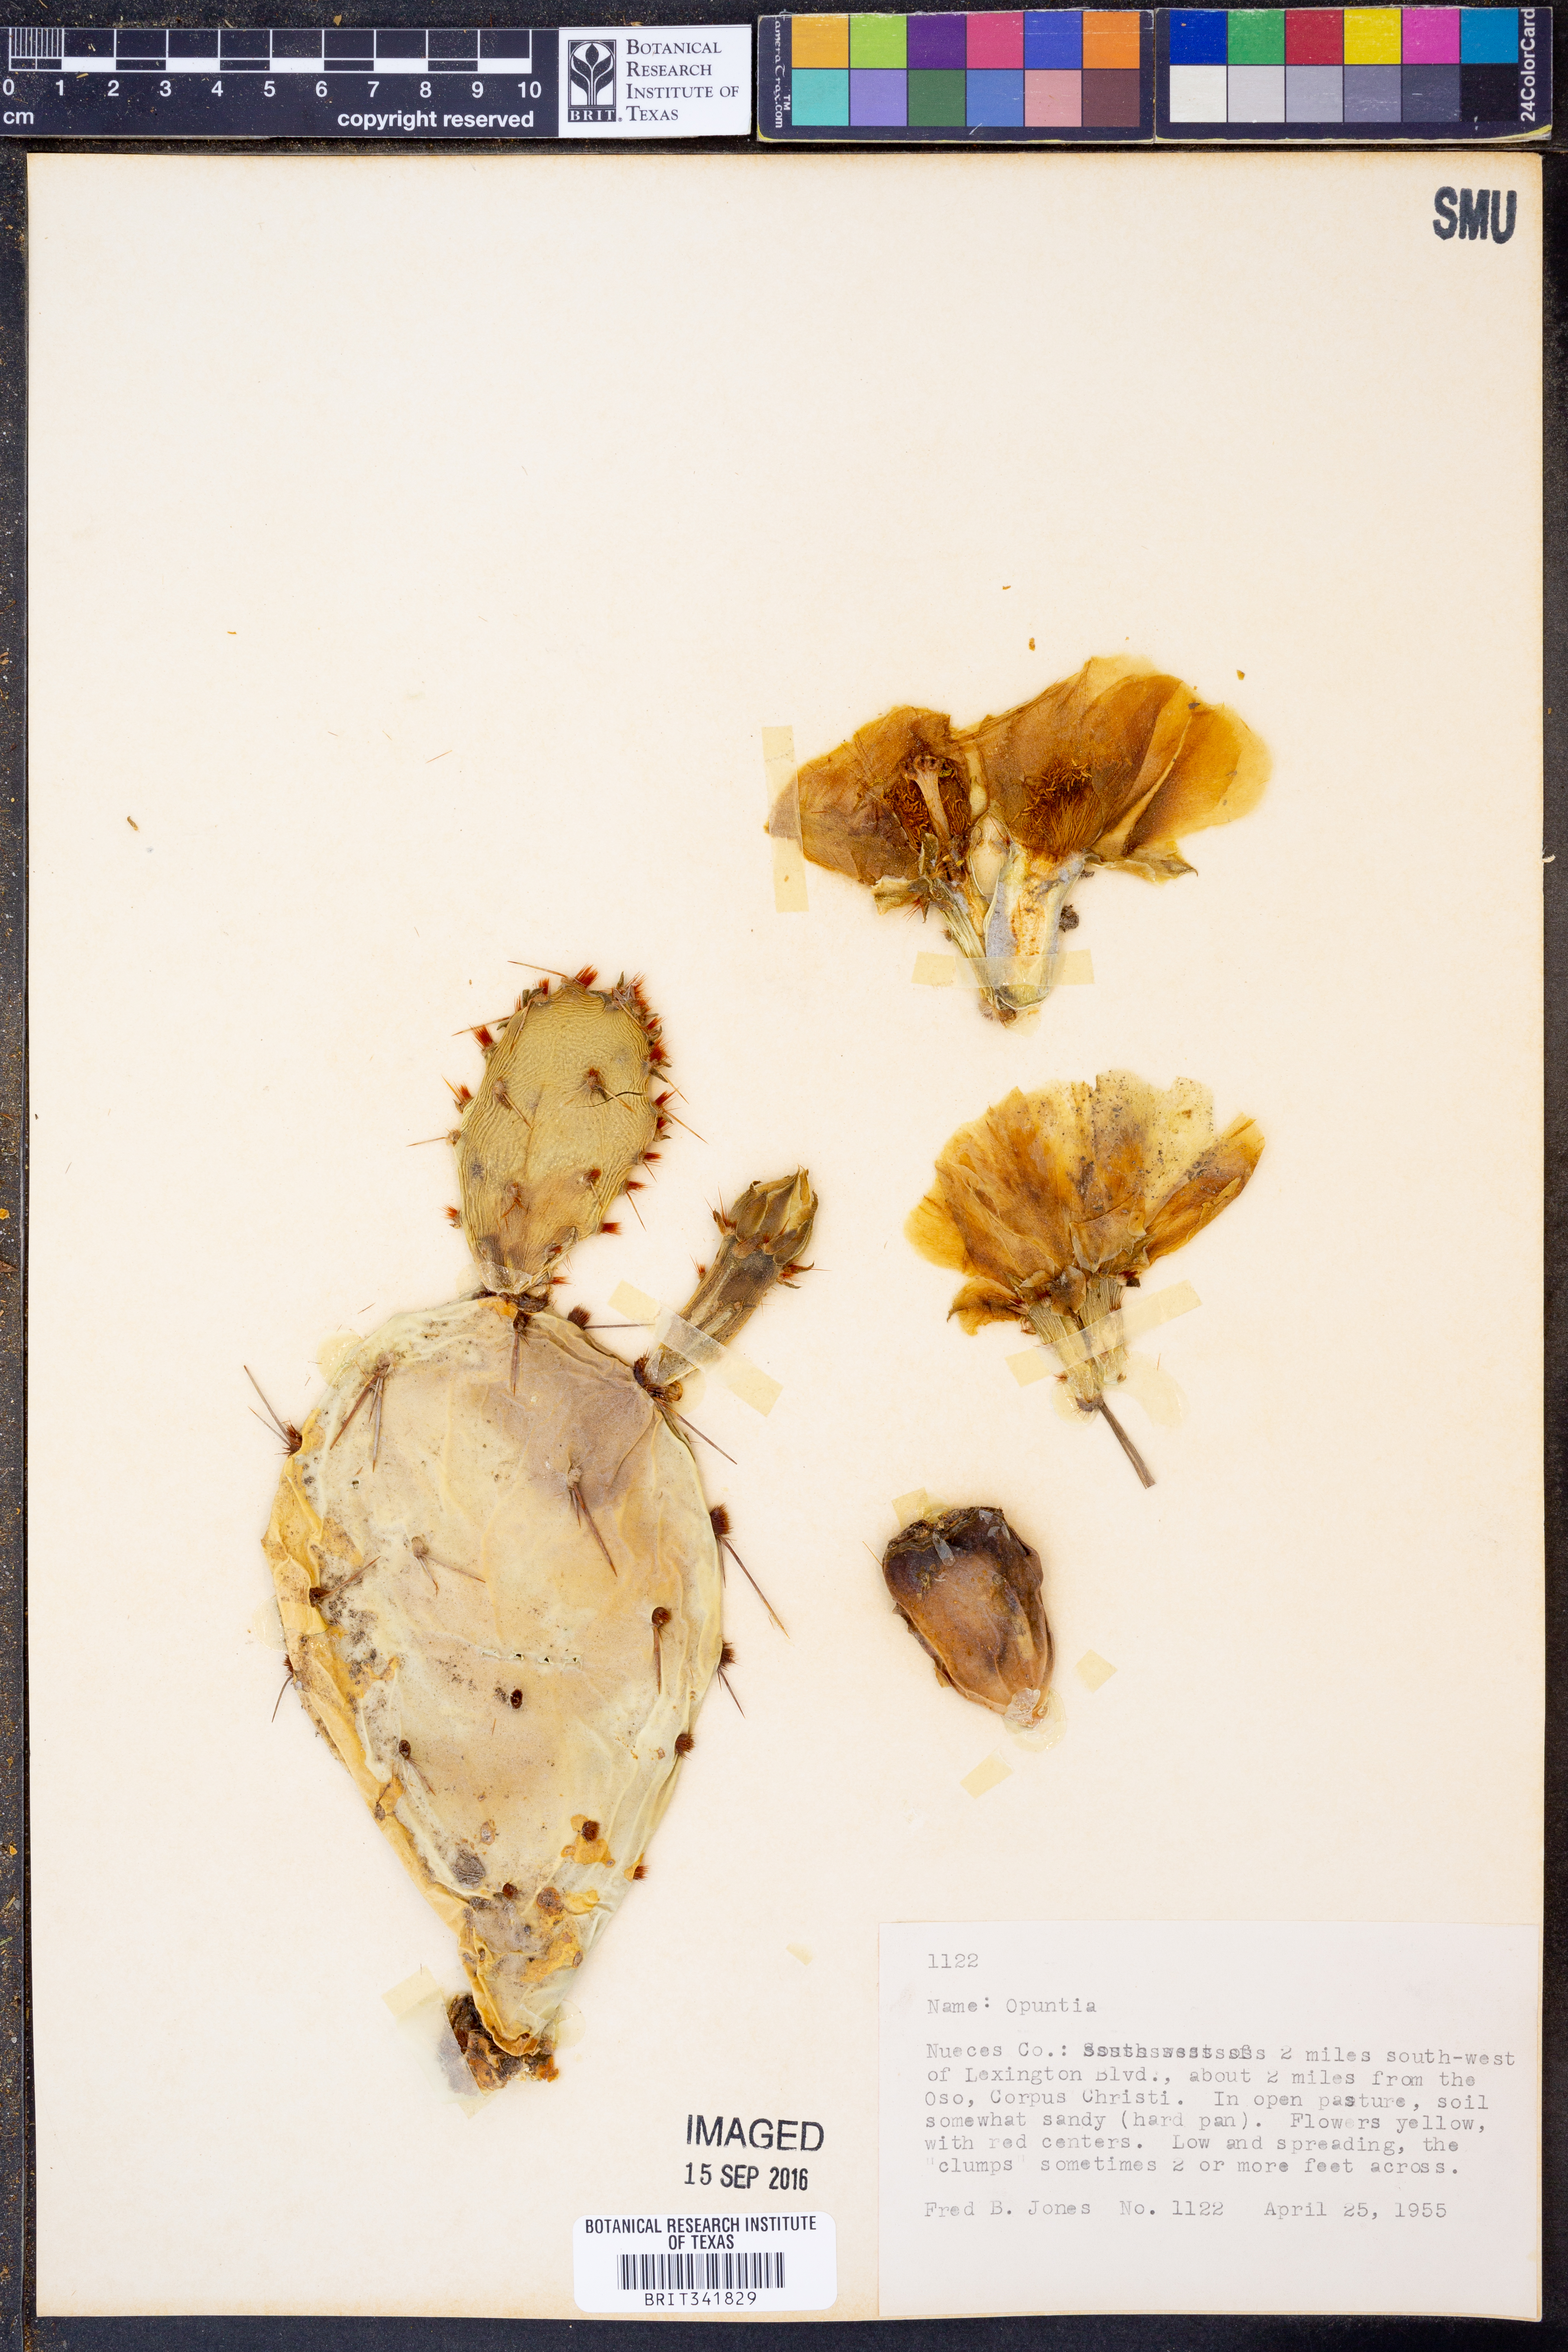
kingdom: Plantae
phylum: Tracheophyta
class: Magnoliopsida
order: Caryophyllales
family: Cactaceae
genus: Opuntia
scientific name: Opuntia
